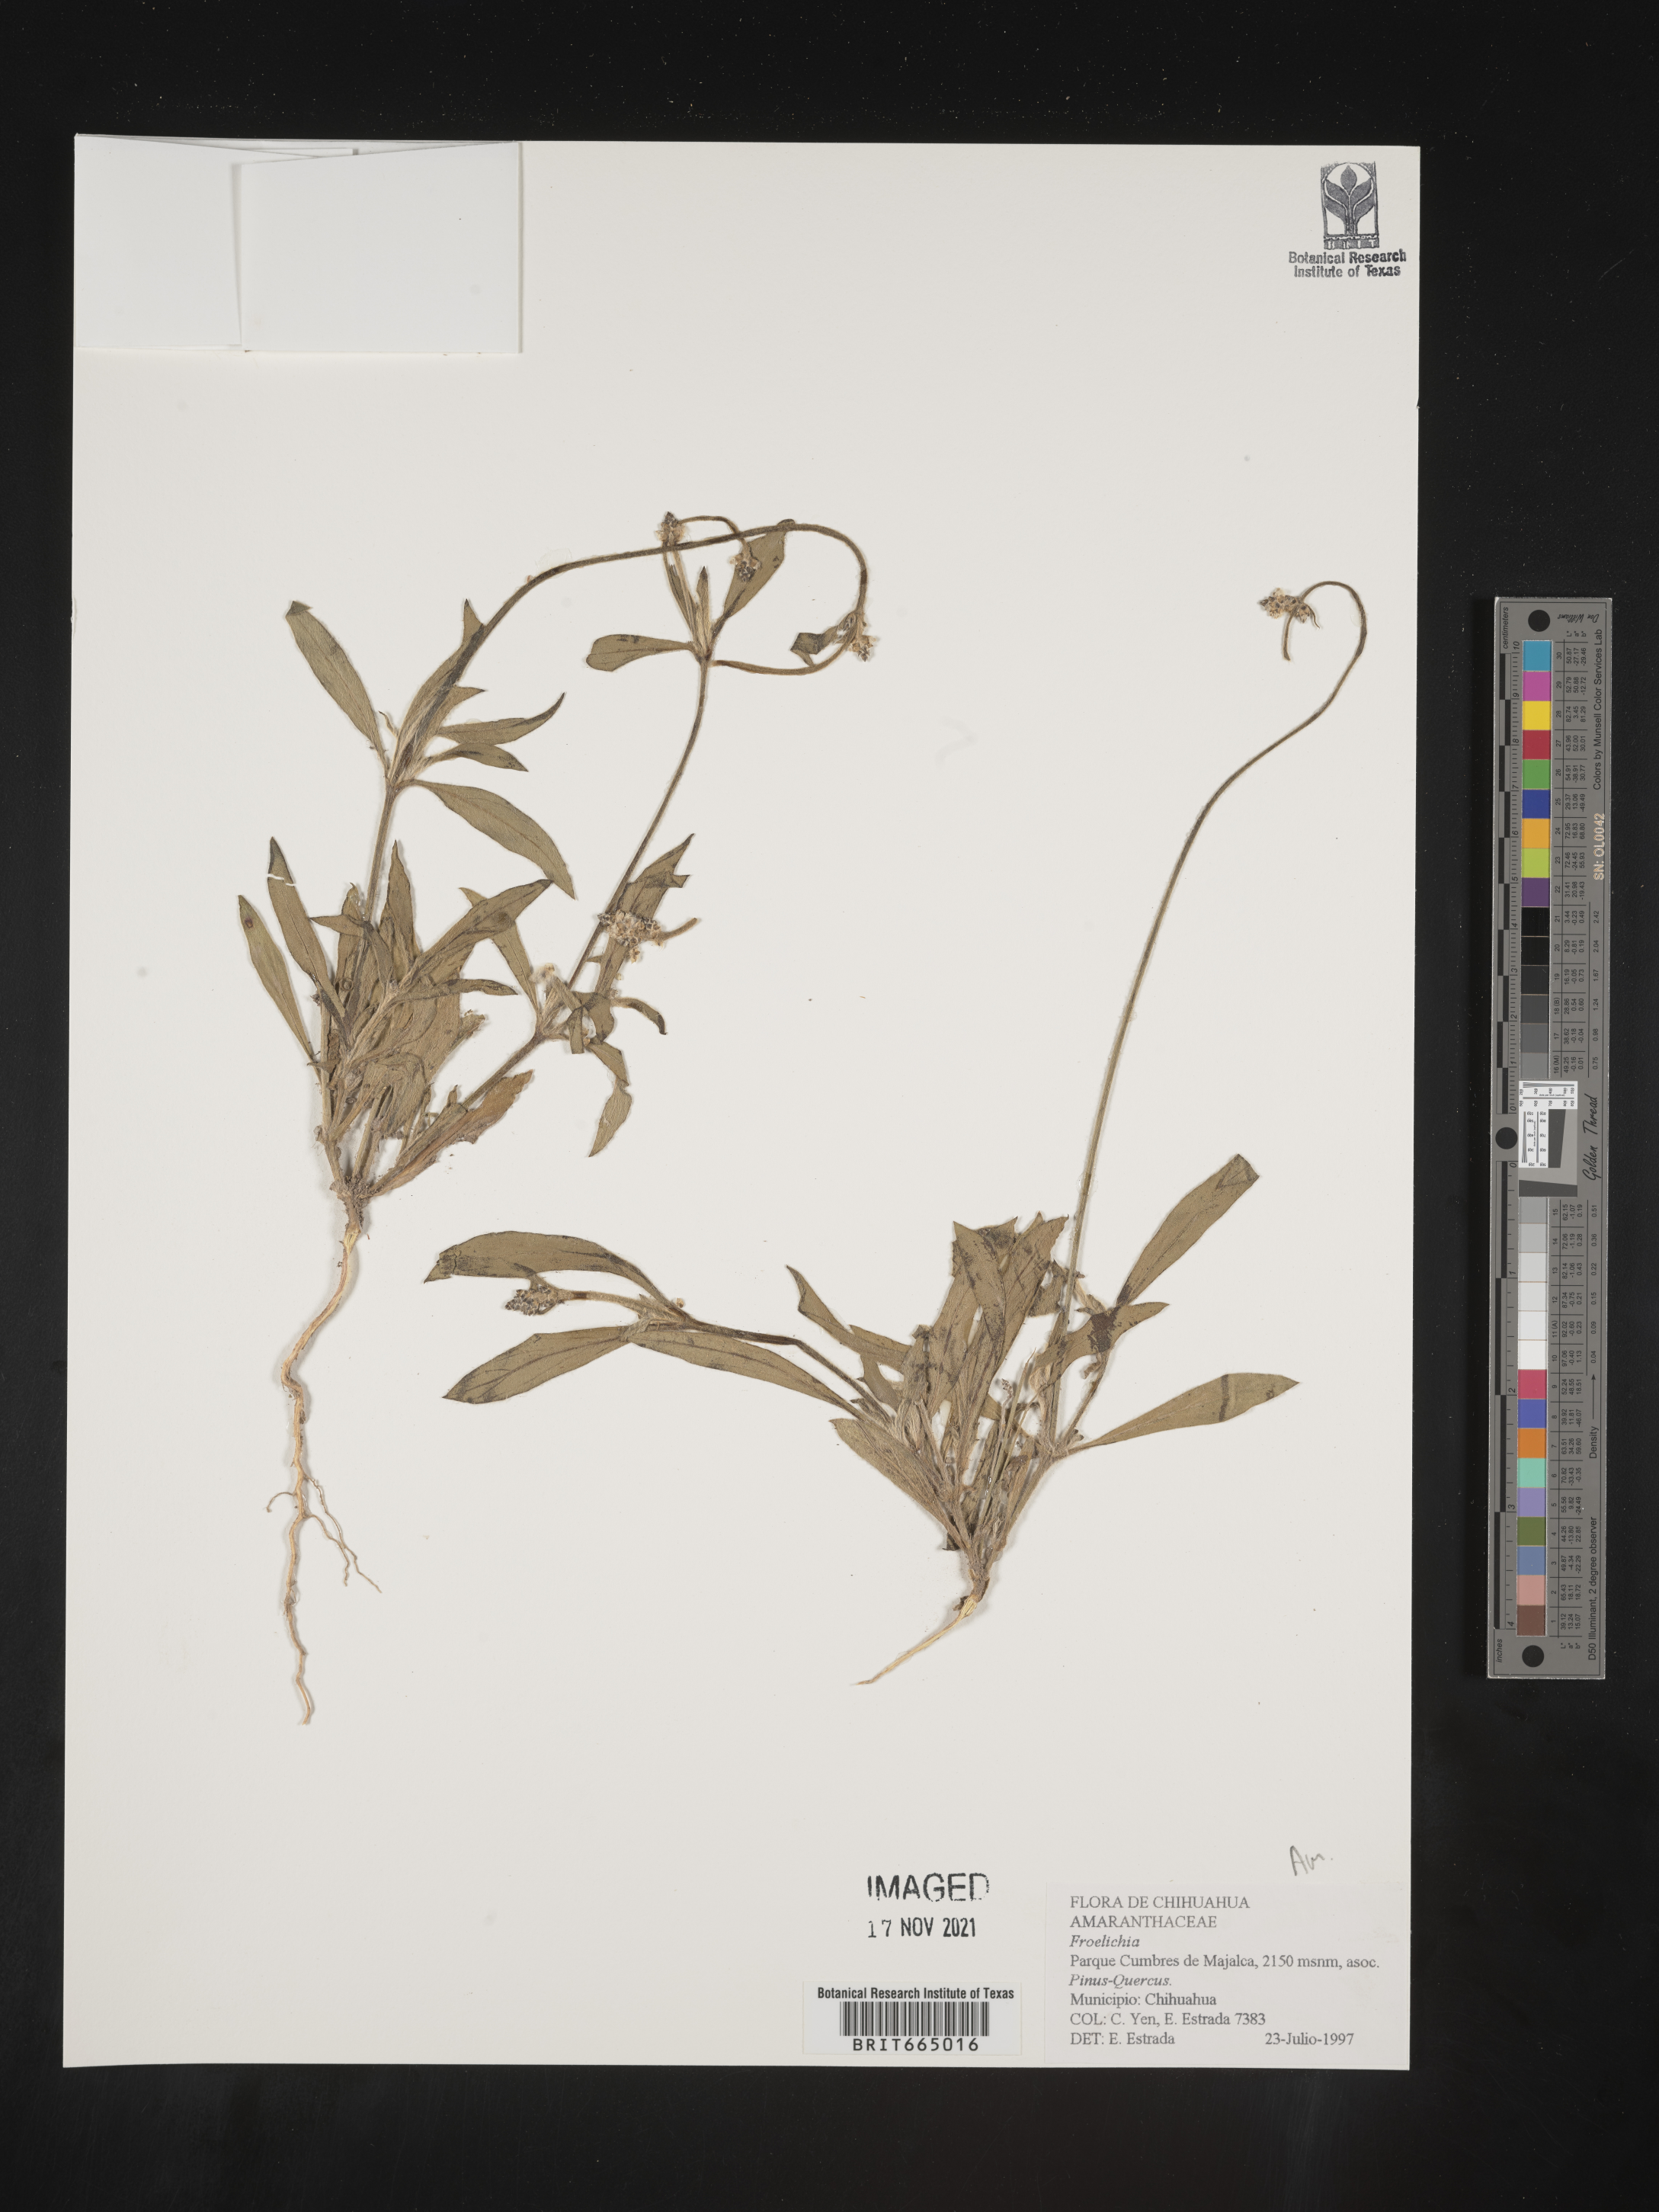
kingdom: Plantae
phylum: Tracheophyta
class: Magnoliopsida
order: Caryophyllales
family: Amaranthaceae
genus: Froelichia
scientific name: Froelichia
